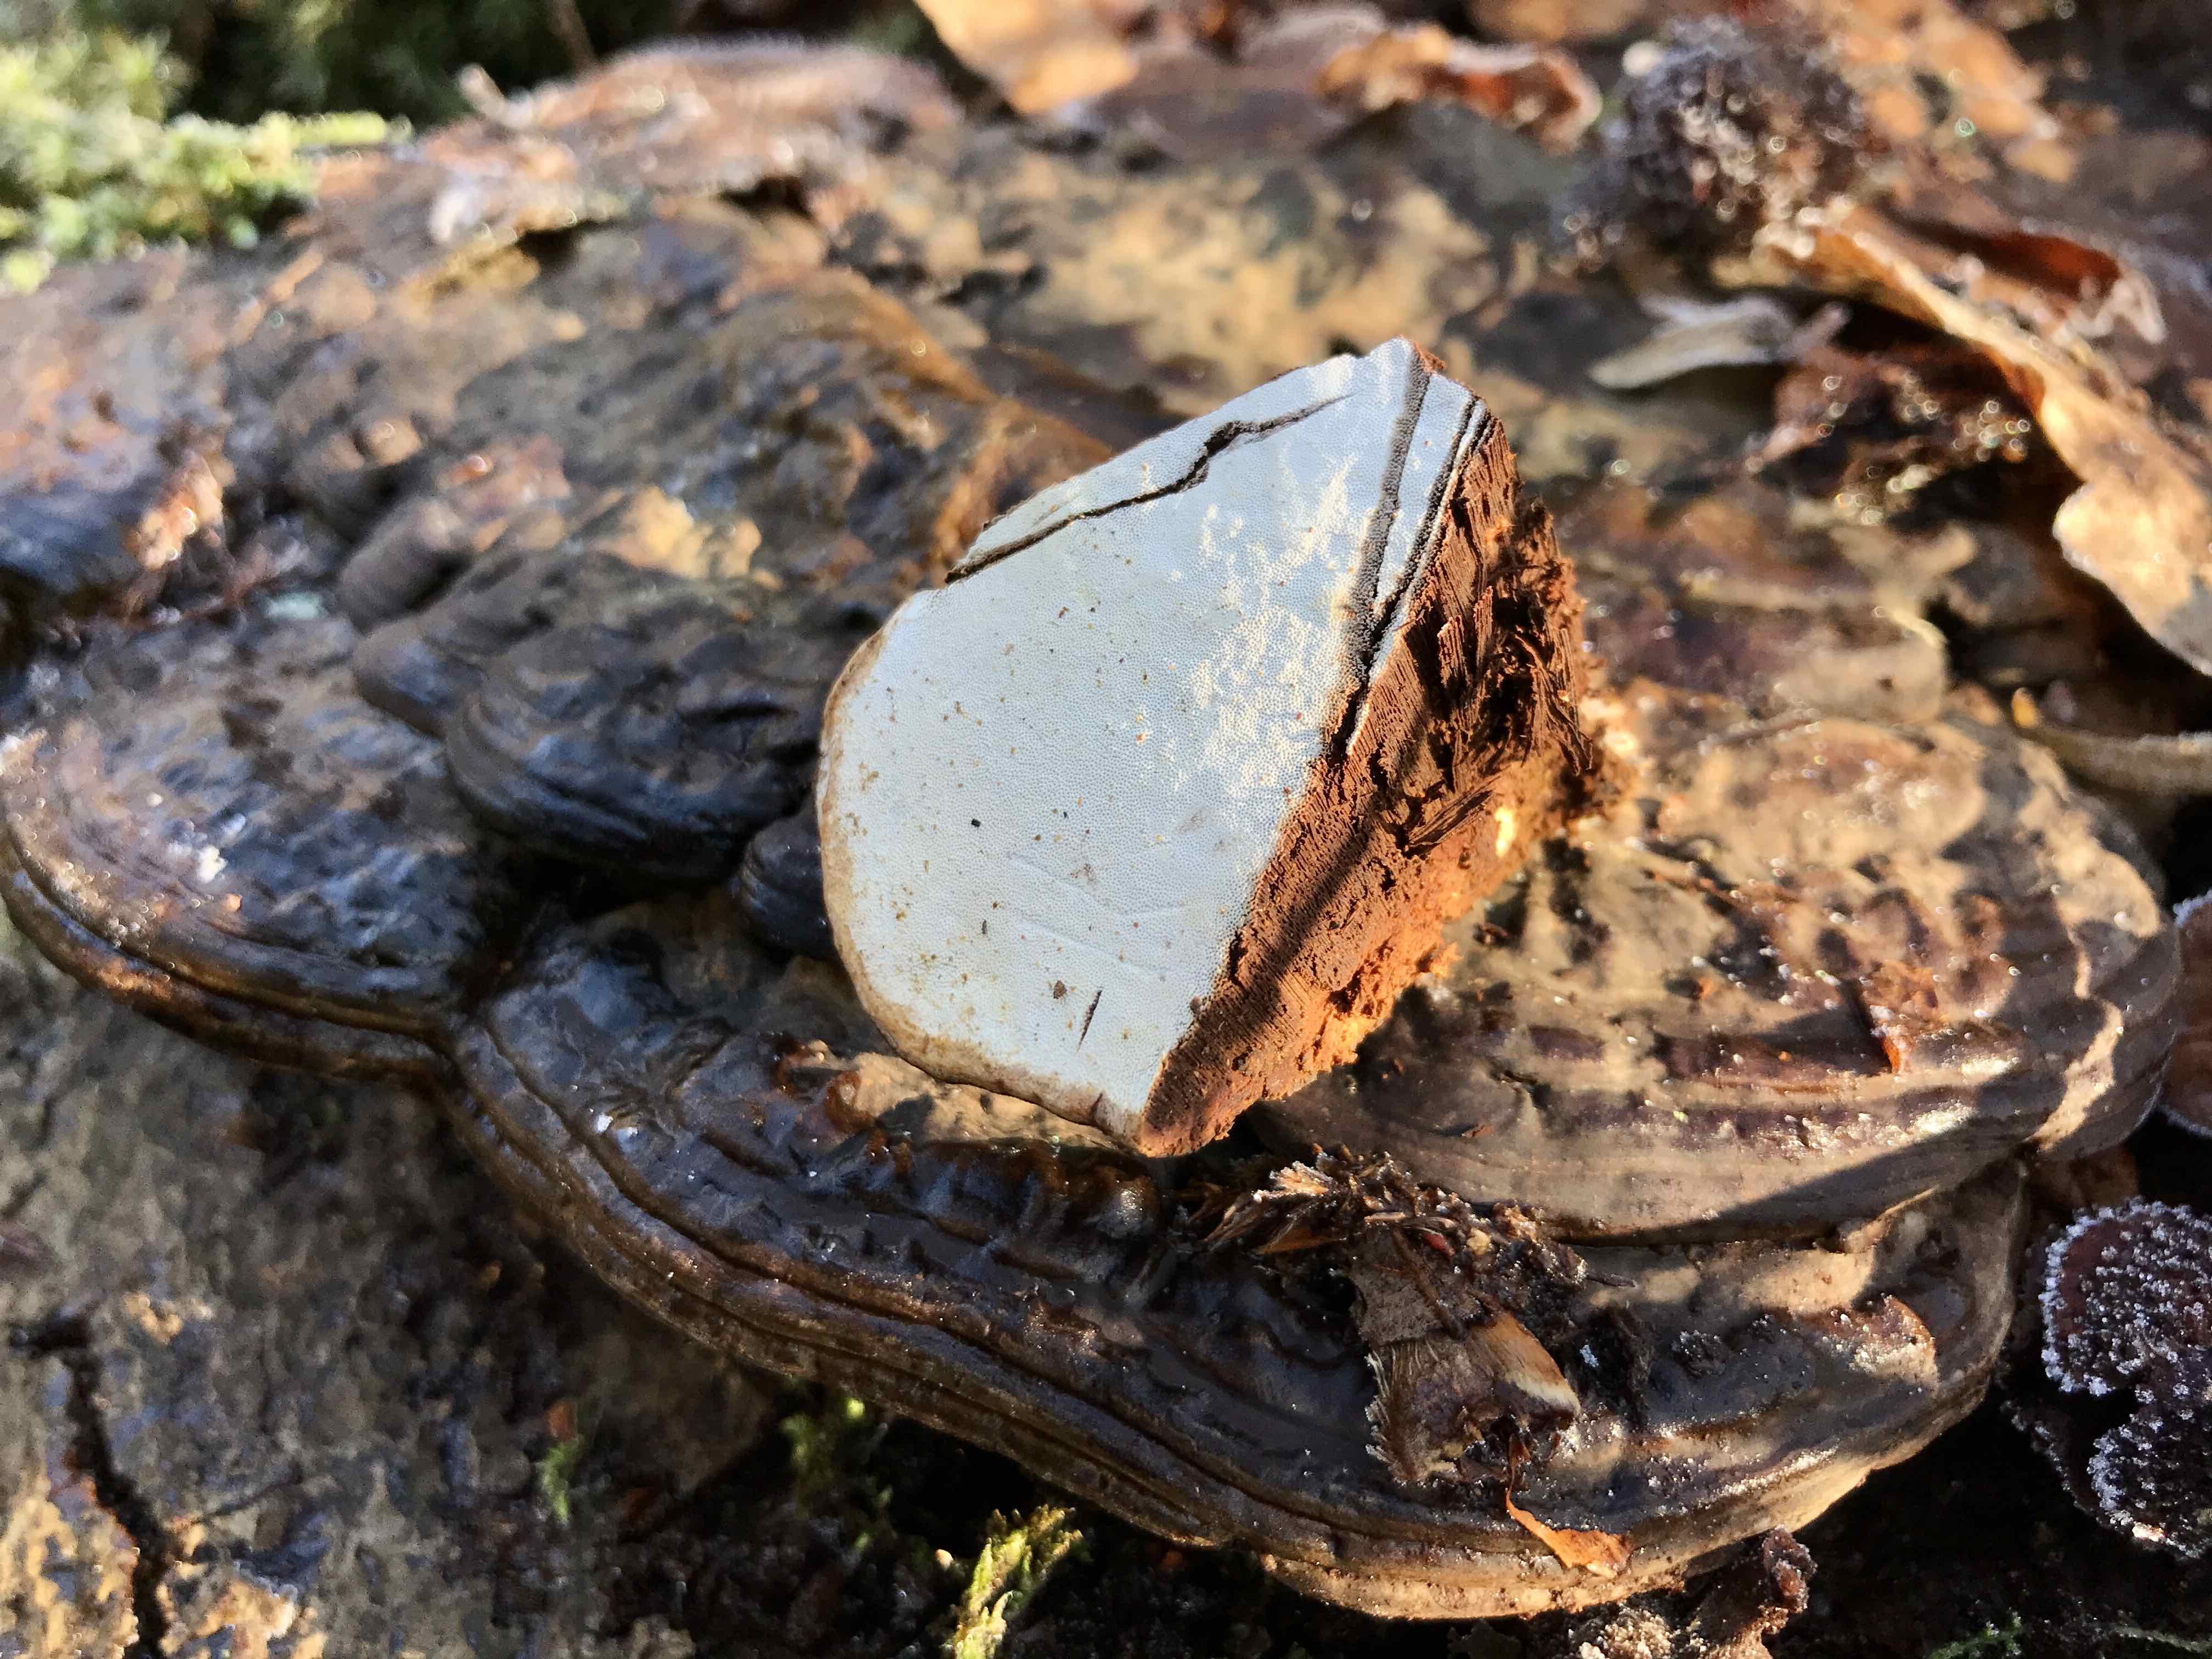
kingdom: Fungi
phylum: Basidiomycota
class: Agaricomycetes
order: Polyporales
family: Polyporaceae
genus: Ganoderma
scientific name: Ganoderma applanatum
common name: flad lakporesvamp
